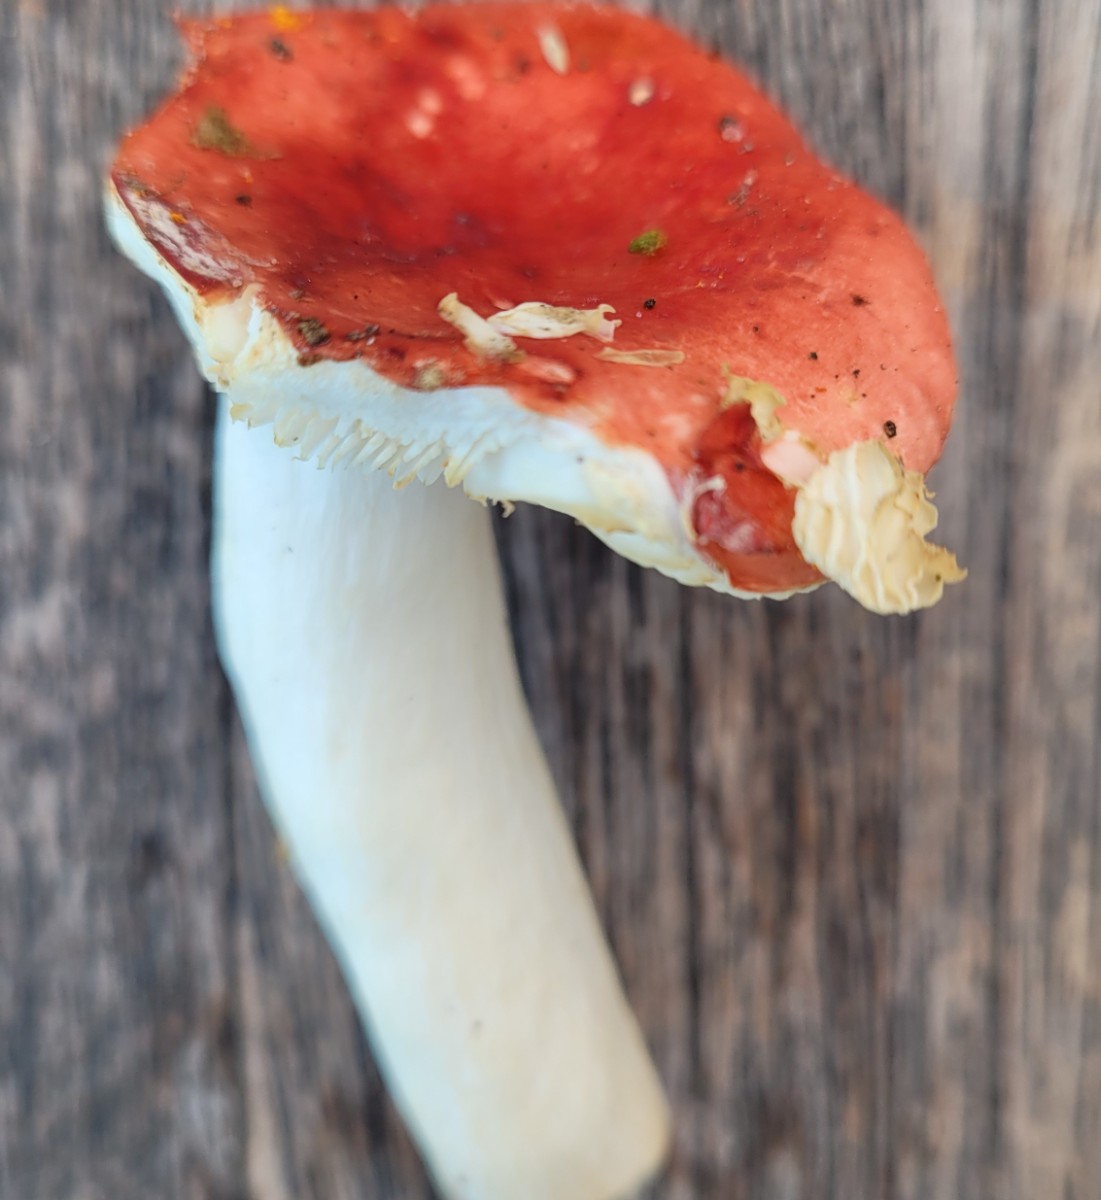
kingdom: Fungi
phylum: Basidiomycota
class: Agaricomycetes
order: Russulales
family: Russulaceae
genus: Russula
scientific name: Russula silvestris
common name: mellemstor gift-skørhat
